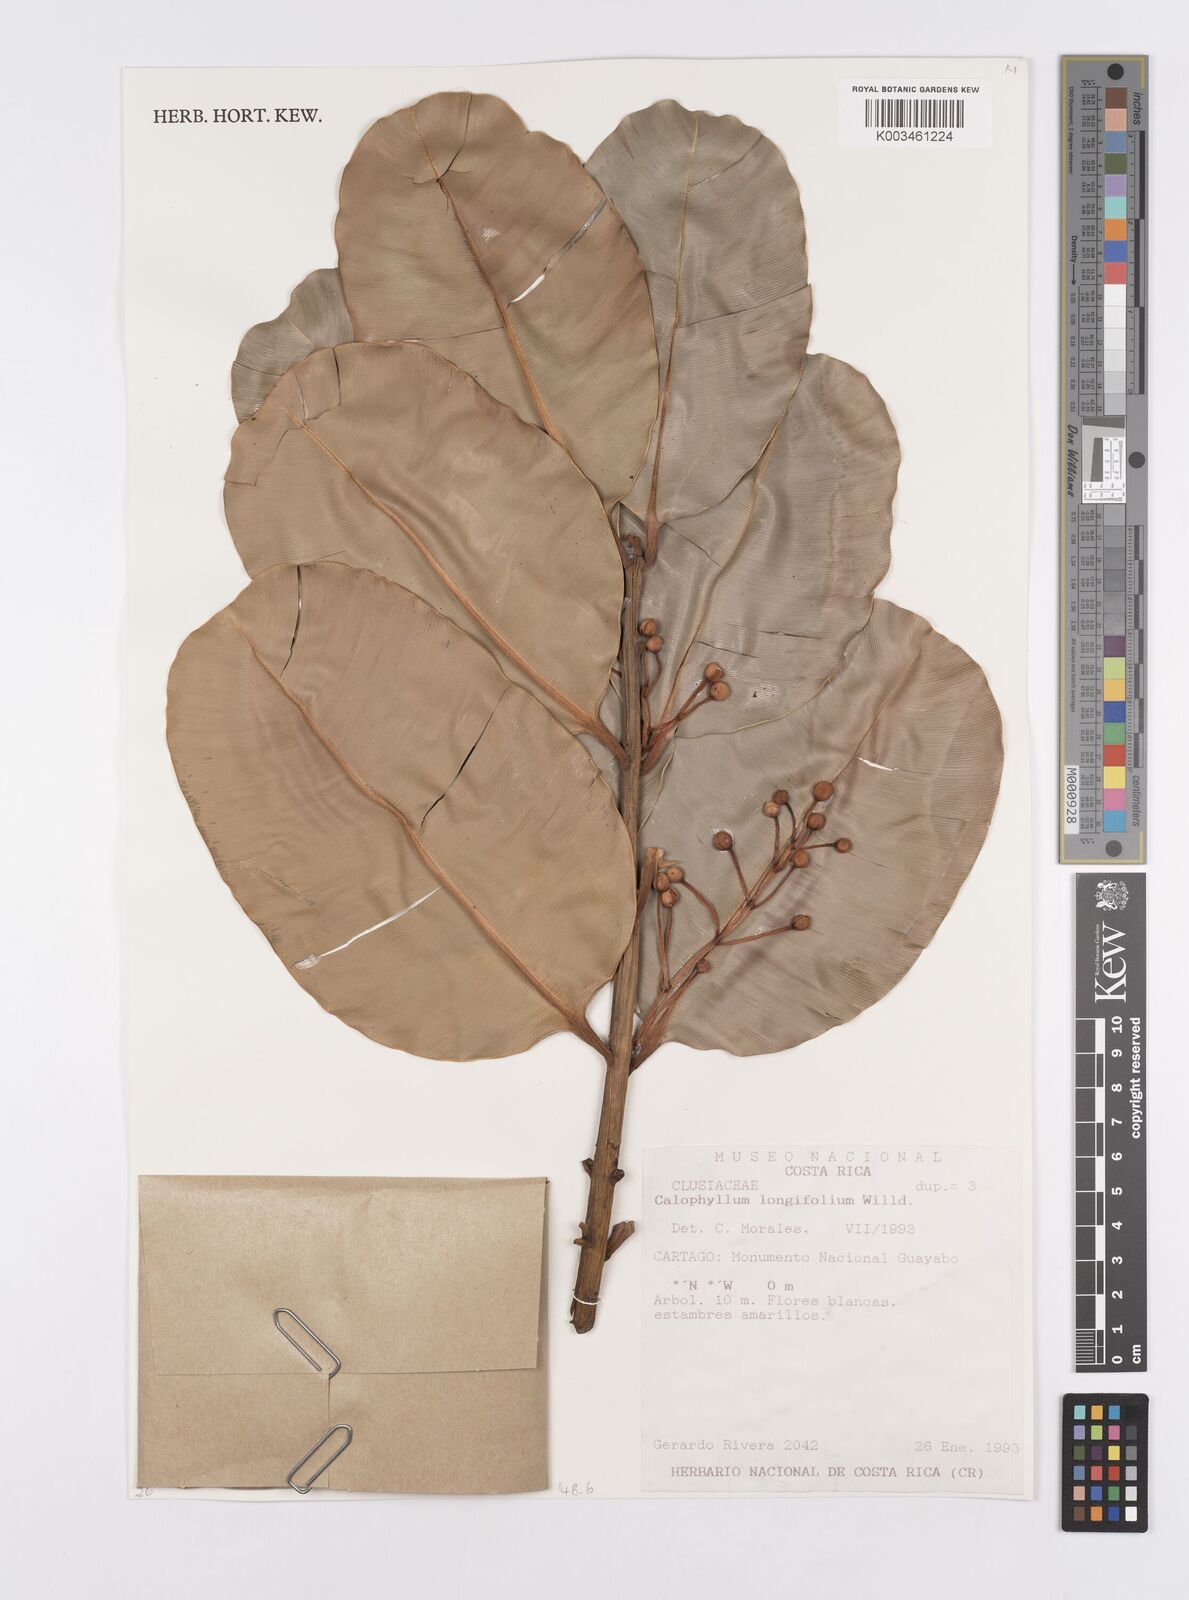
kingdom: Plantae
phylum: Tracheophyta
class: Magnoliopsida
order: Malpighiales
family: Calophyllaceae
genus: Calophyllum
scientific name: Calophyllum brasiliense
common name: Santa maria
